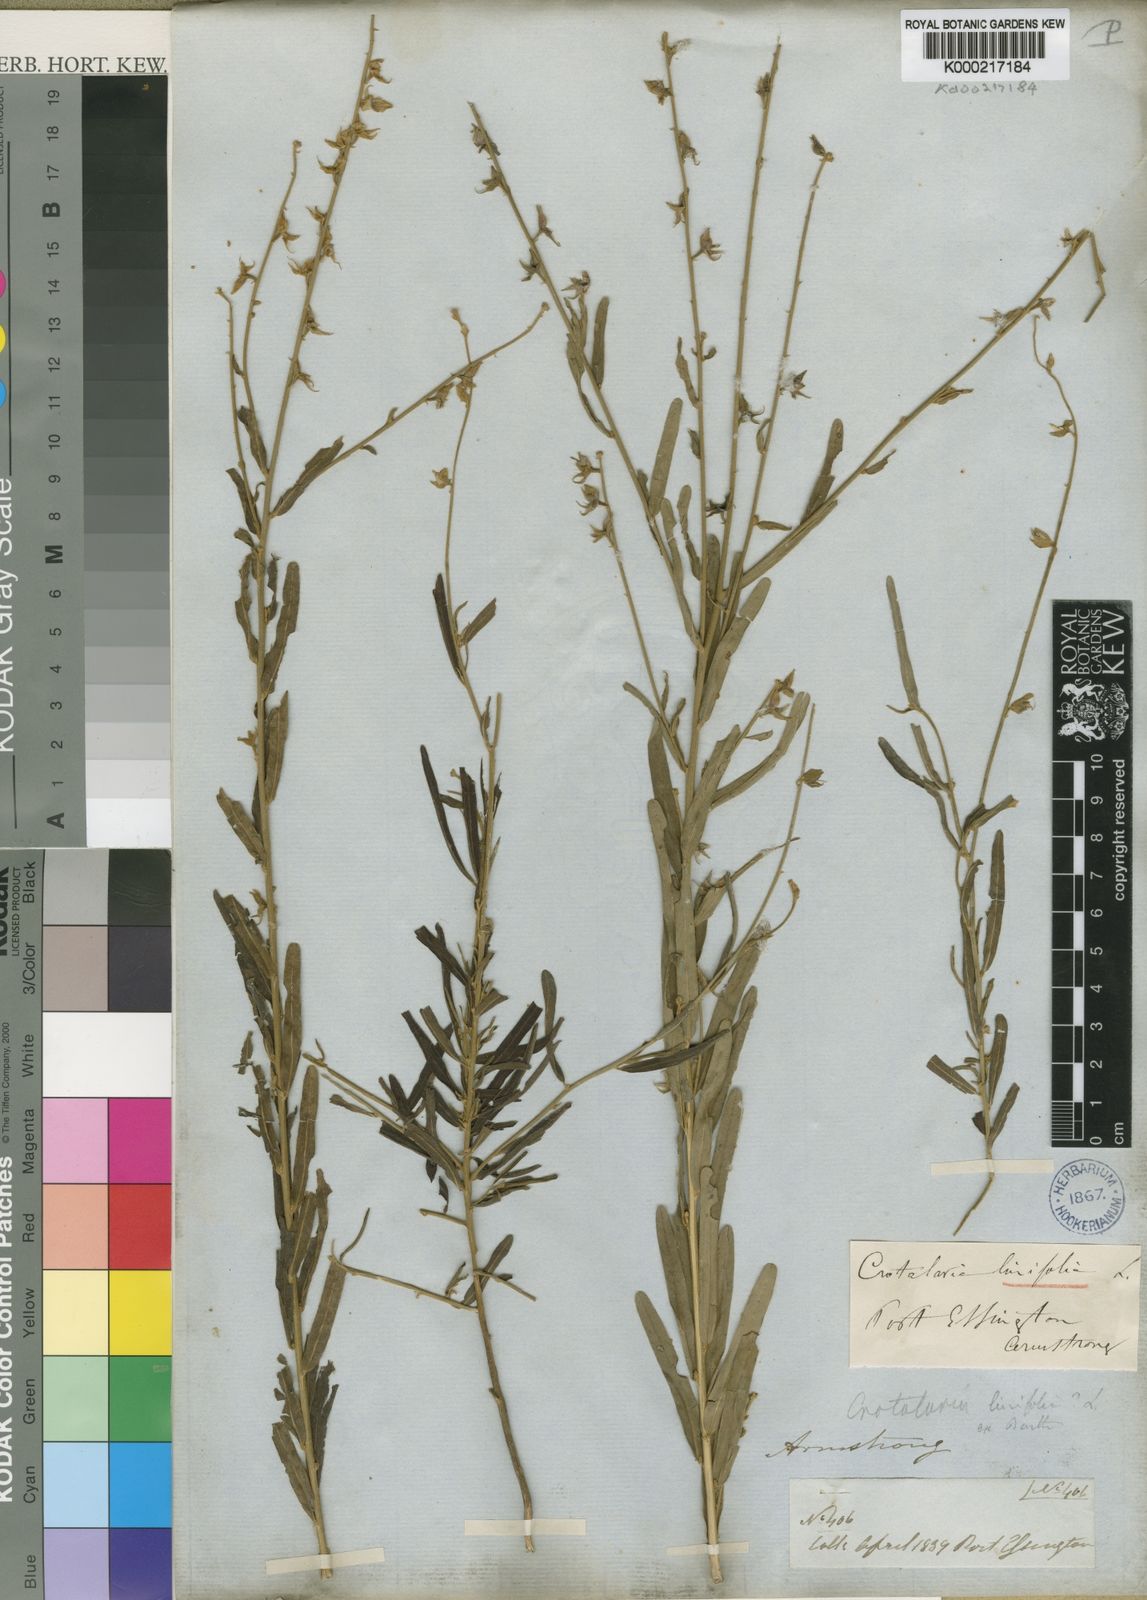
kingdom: Plantae
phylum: Tracheophyta
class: Magnoliopsida
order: Fabales
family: Fabaceae
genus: Crotalaria
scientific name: Crotalaria linifolia
